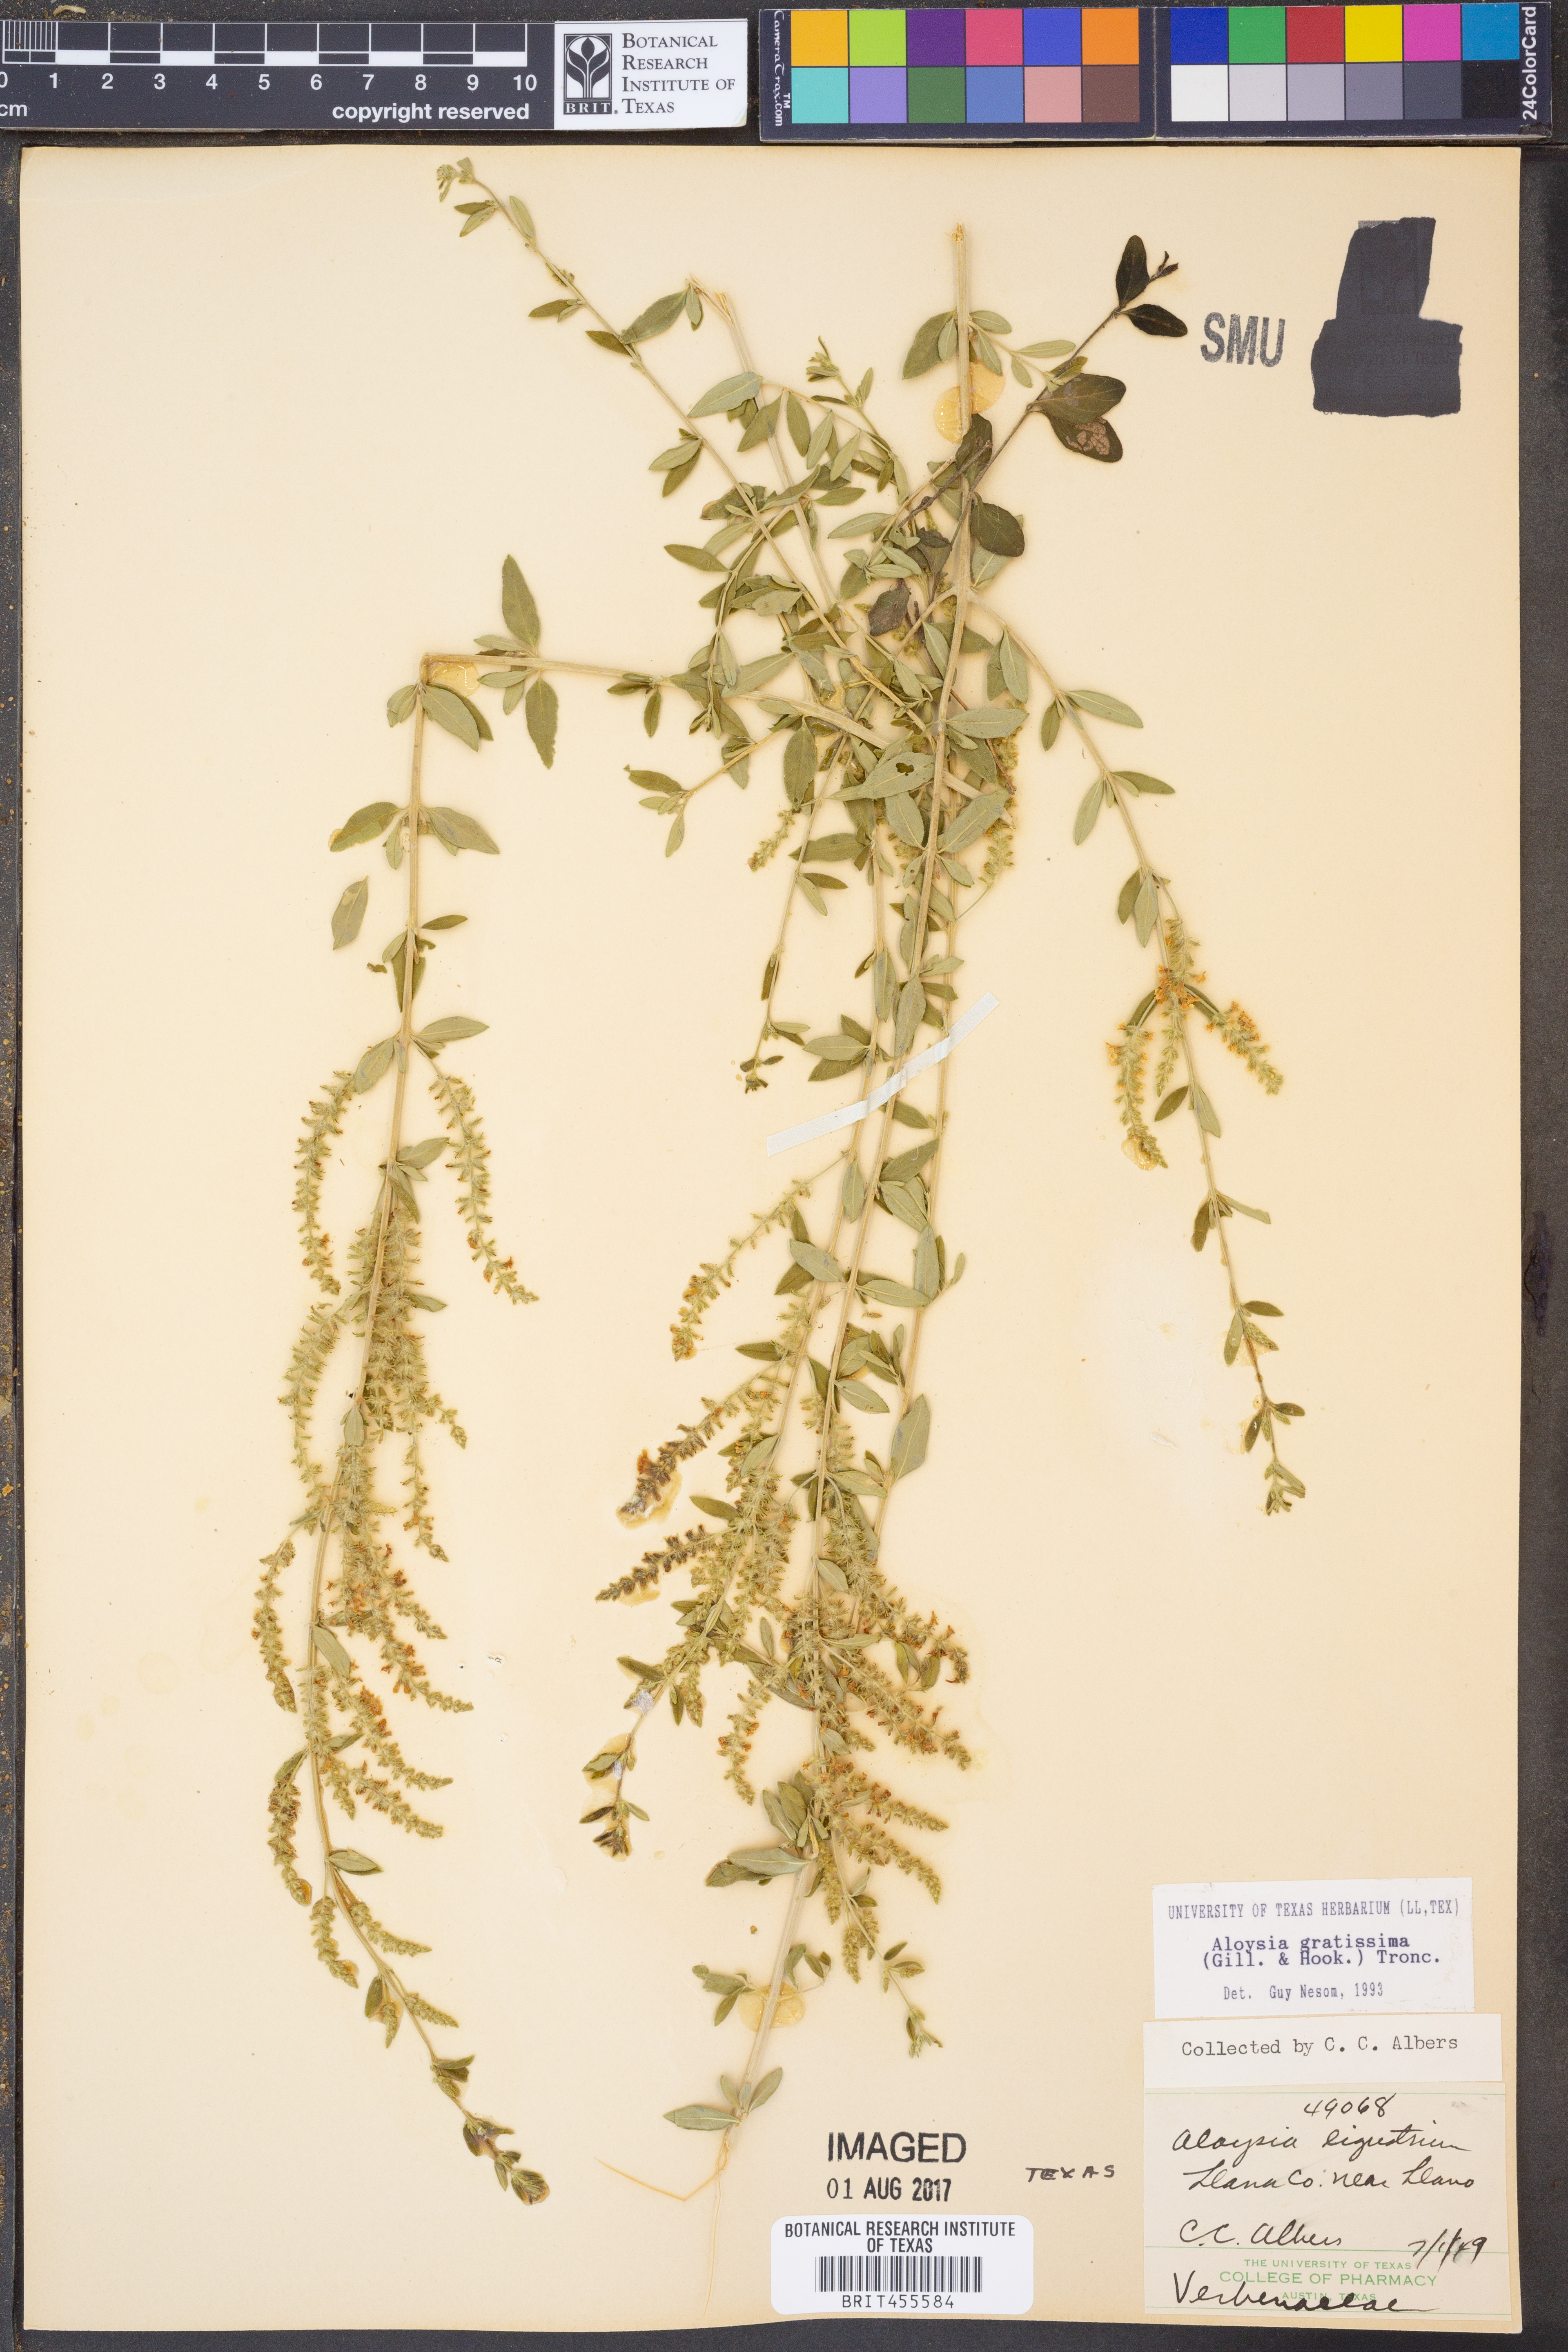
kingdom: Plantae
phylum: Tracheophyta
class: Magnoliopsida
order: Lamiales
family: Verbenaceae
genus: Aloysia
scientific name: Aloysia gratissima
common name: Common bee-brush
